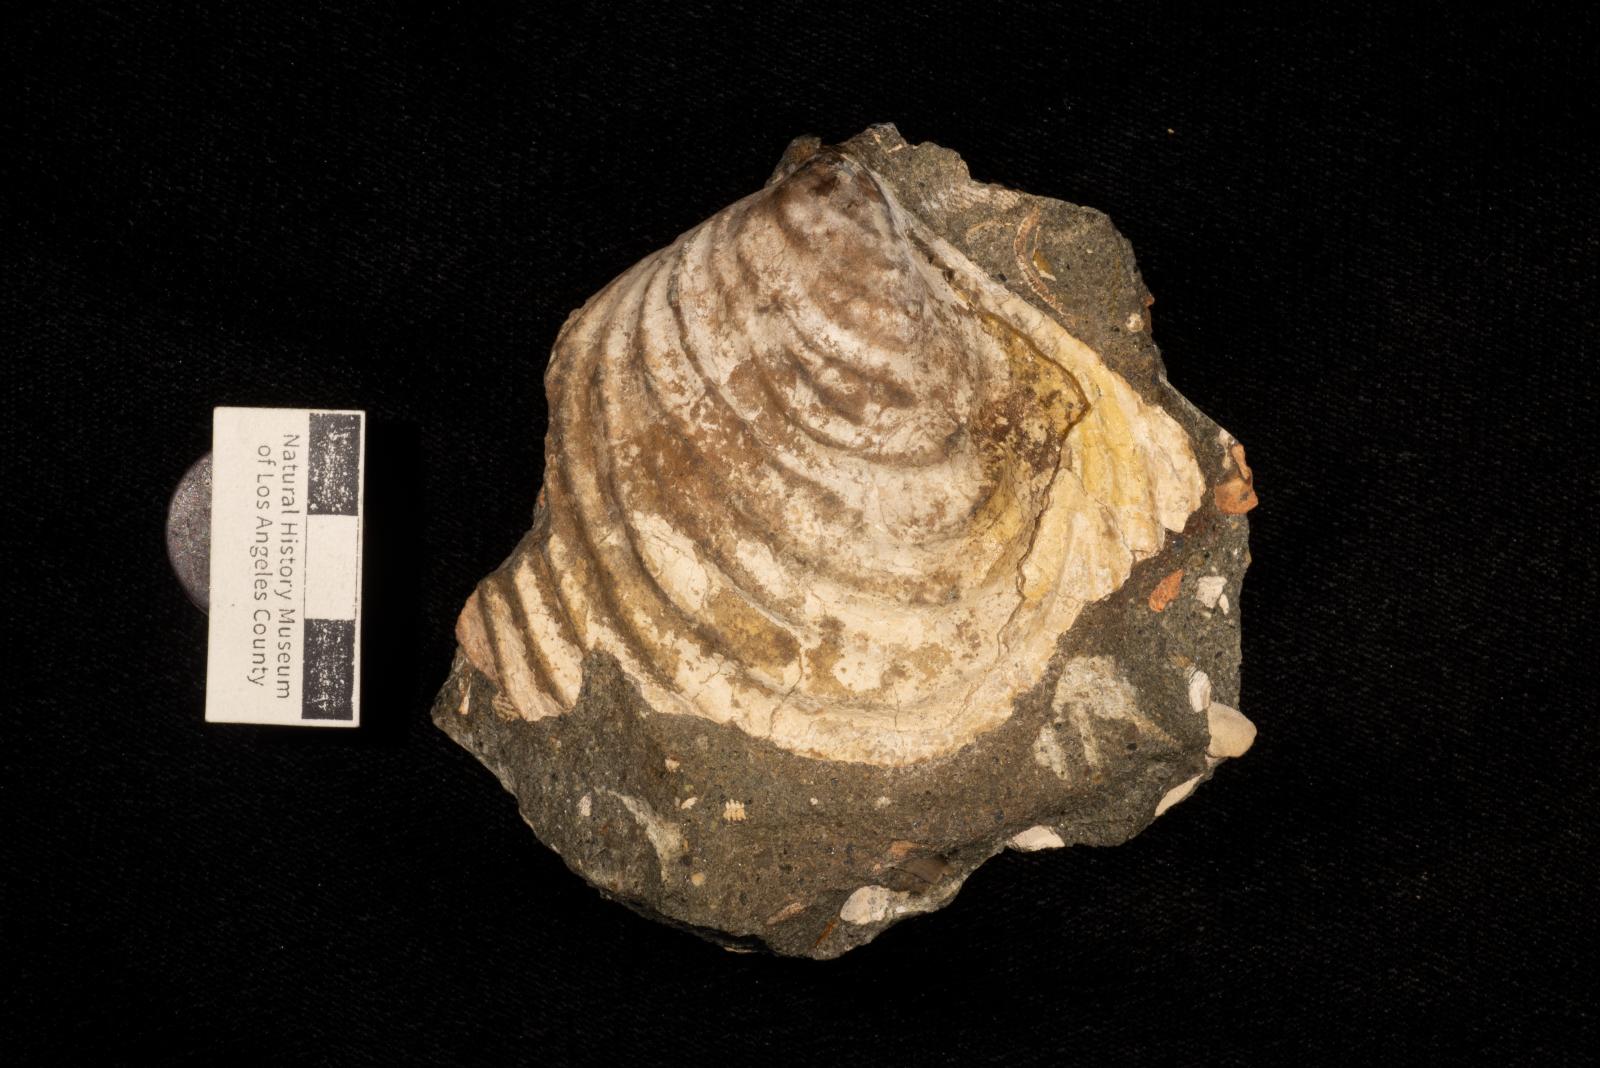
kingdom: Animalia
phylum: Mollusca
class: Bivalvia
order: Myalinida
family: Inoceramidae
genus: Inoceramus
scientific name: Inoceramus
